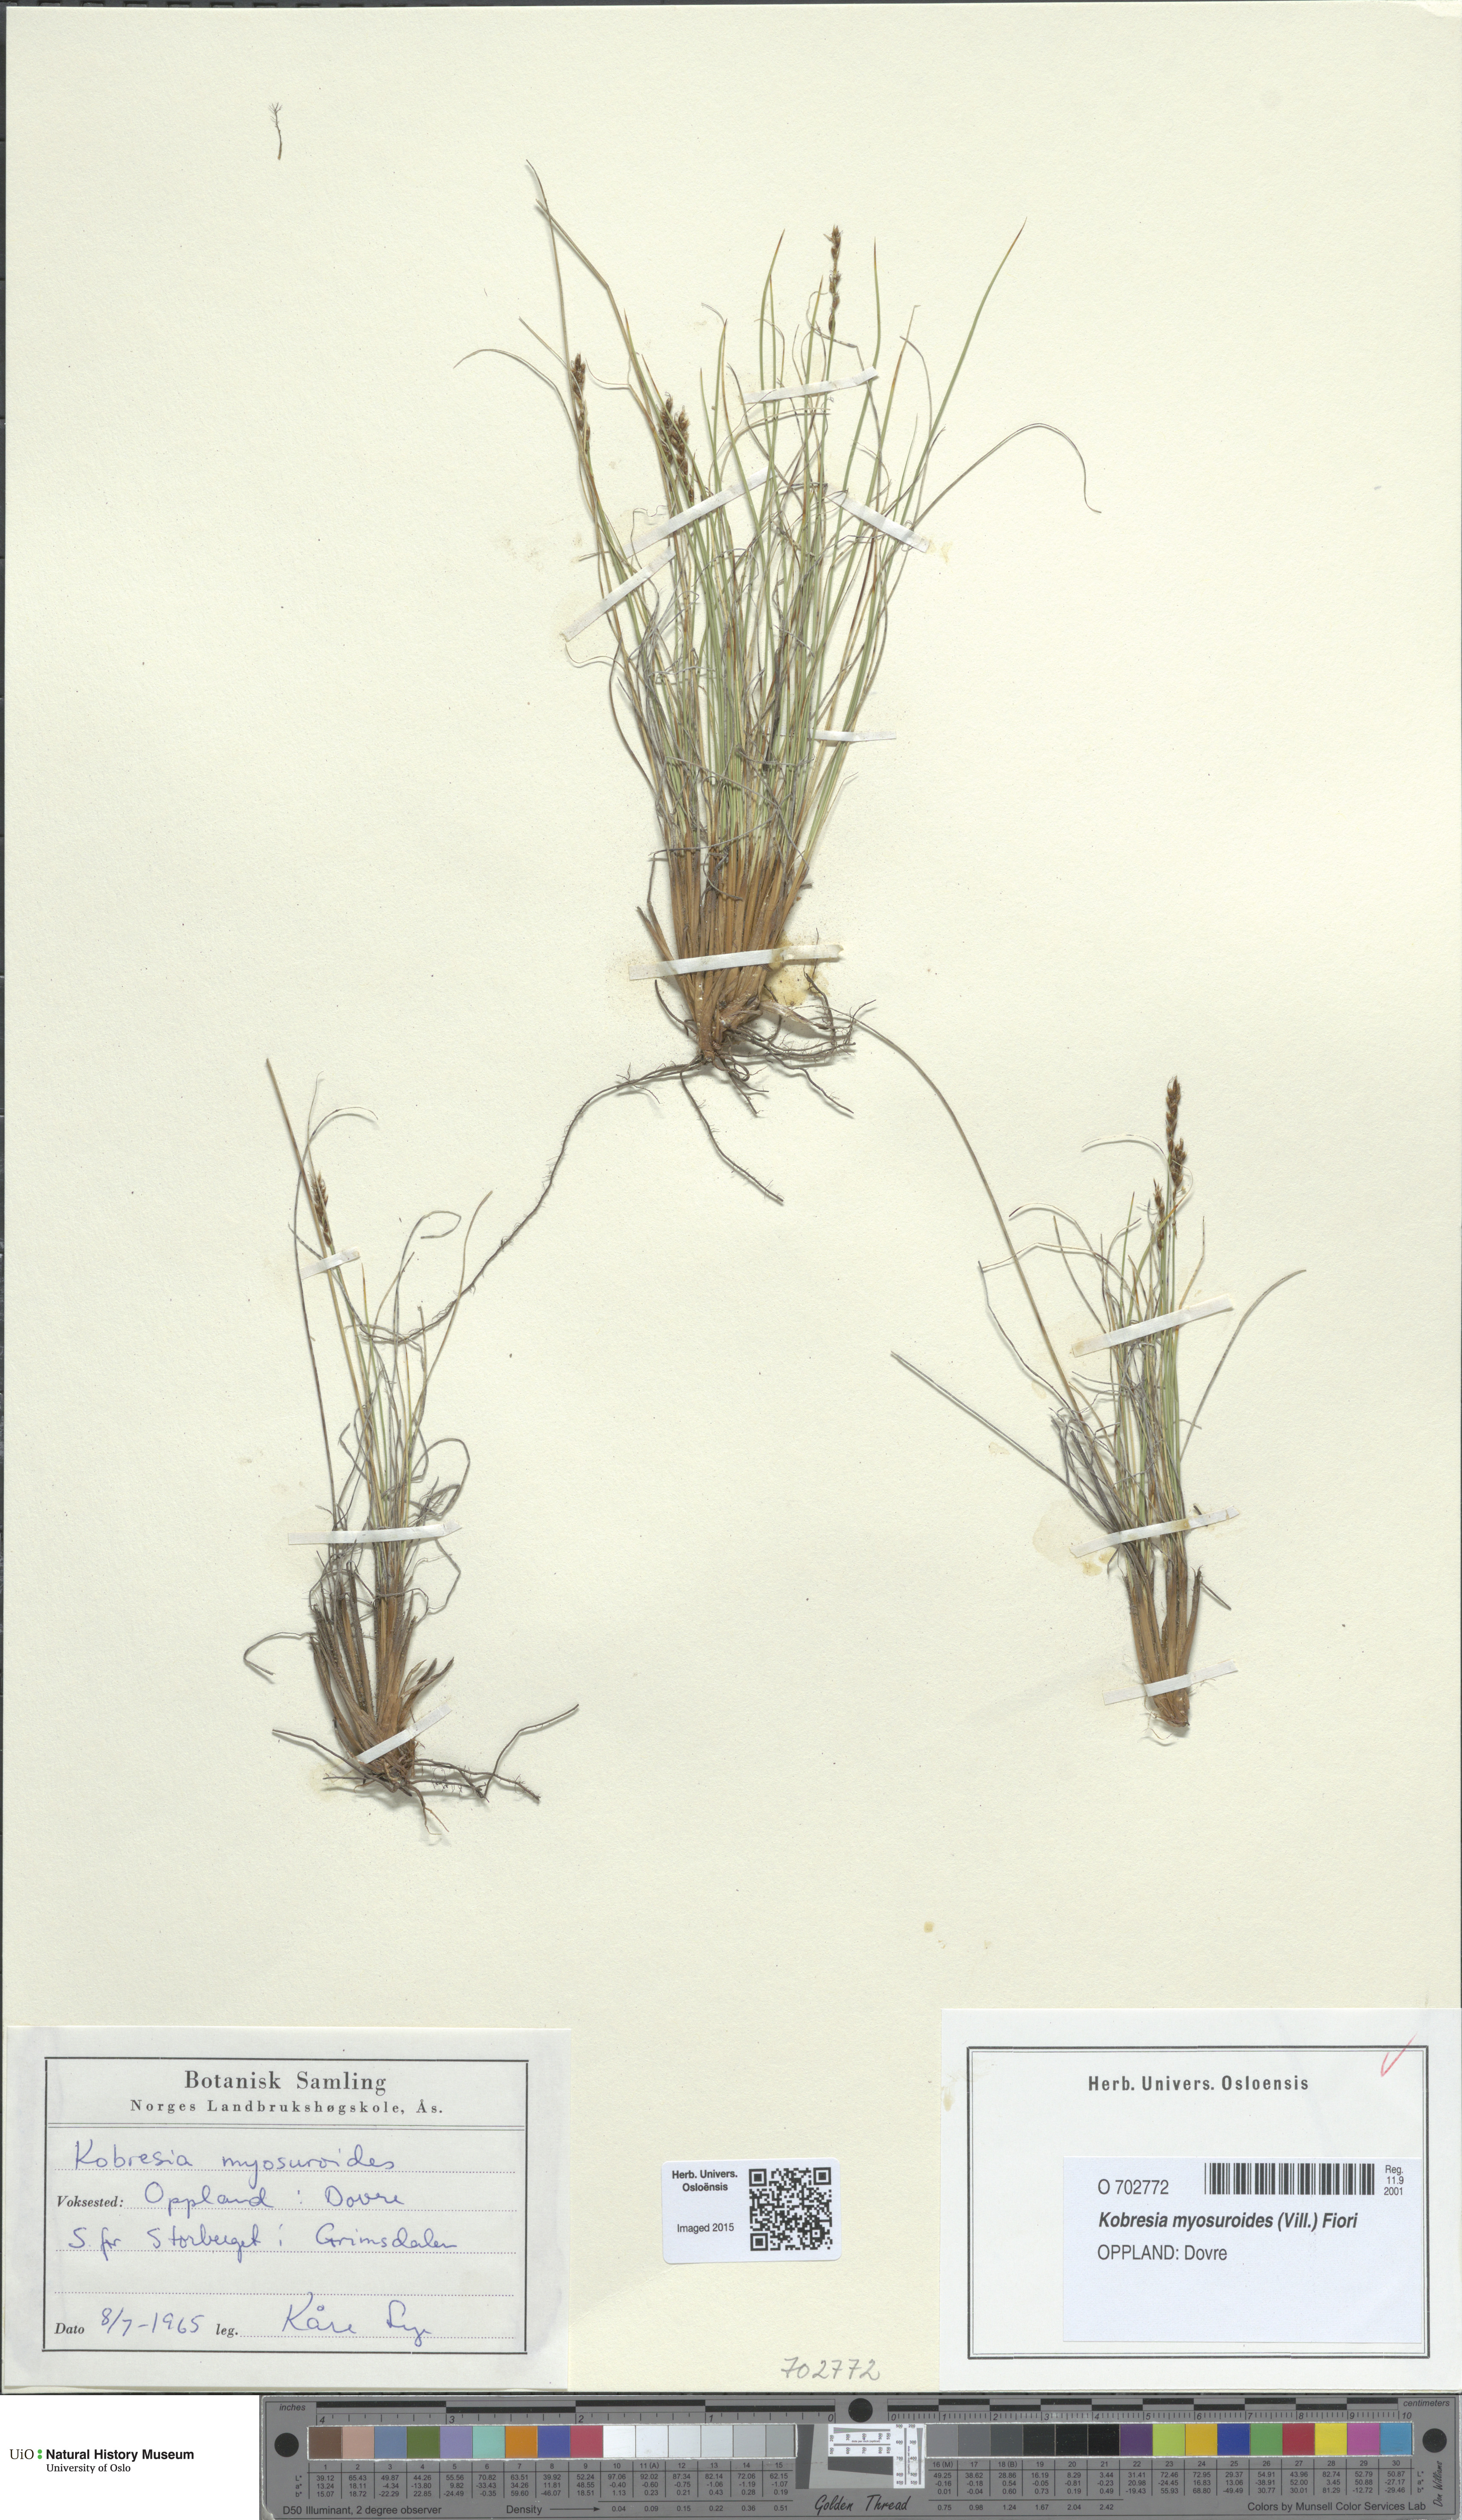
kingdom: Plantae
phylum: Tracheophyta
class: Liliopsida
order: Poales
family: Cyperaceae
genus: Carex
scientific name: Carex myosuroides
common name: Bellard's bog sedge
